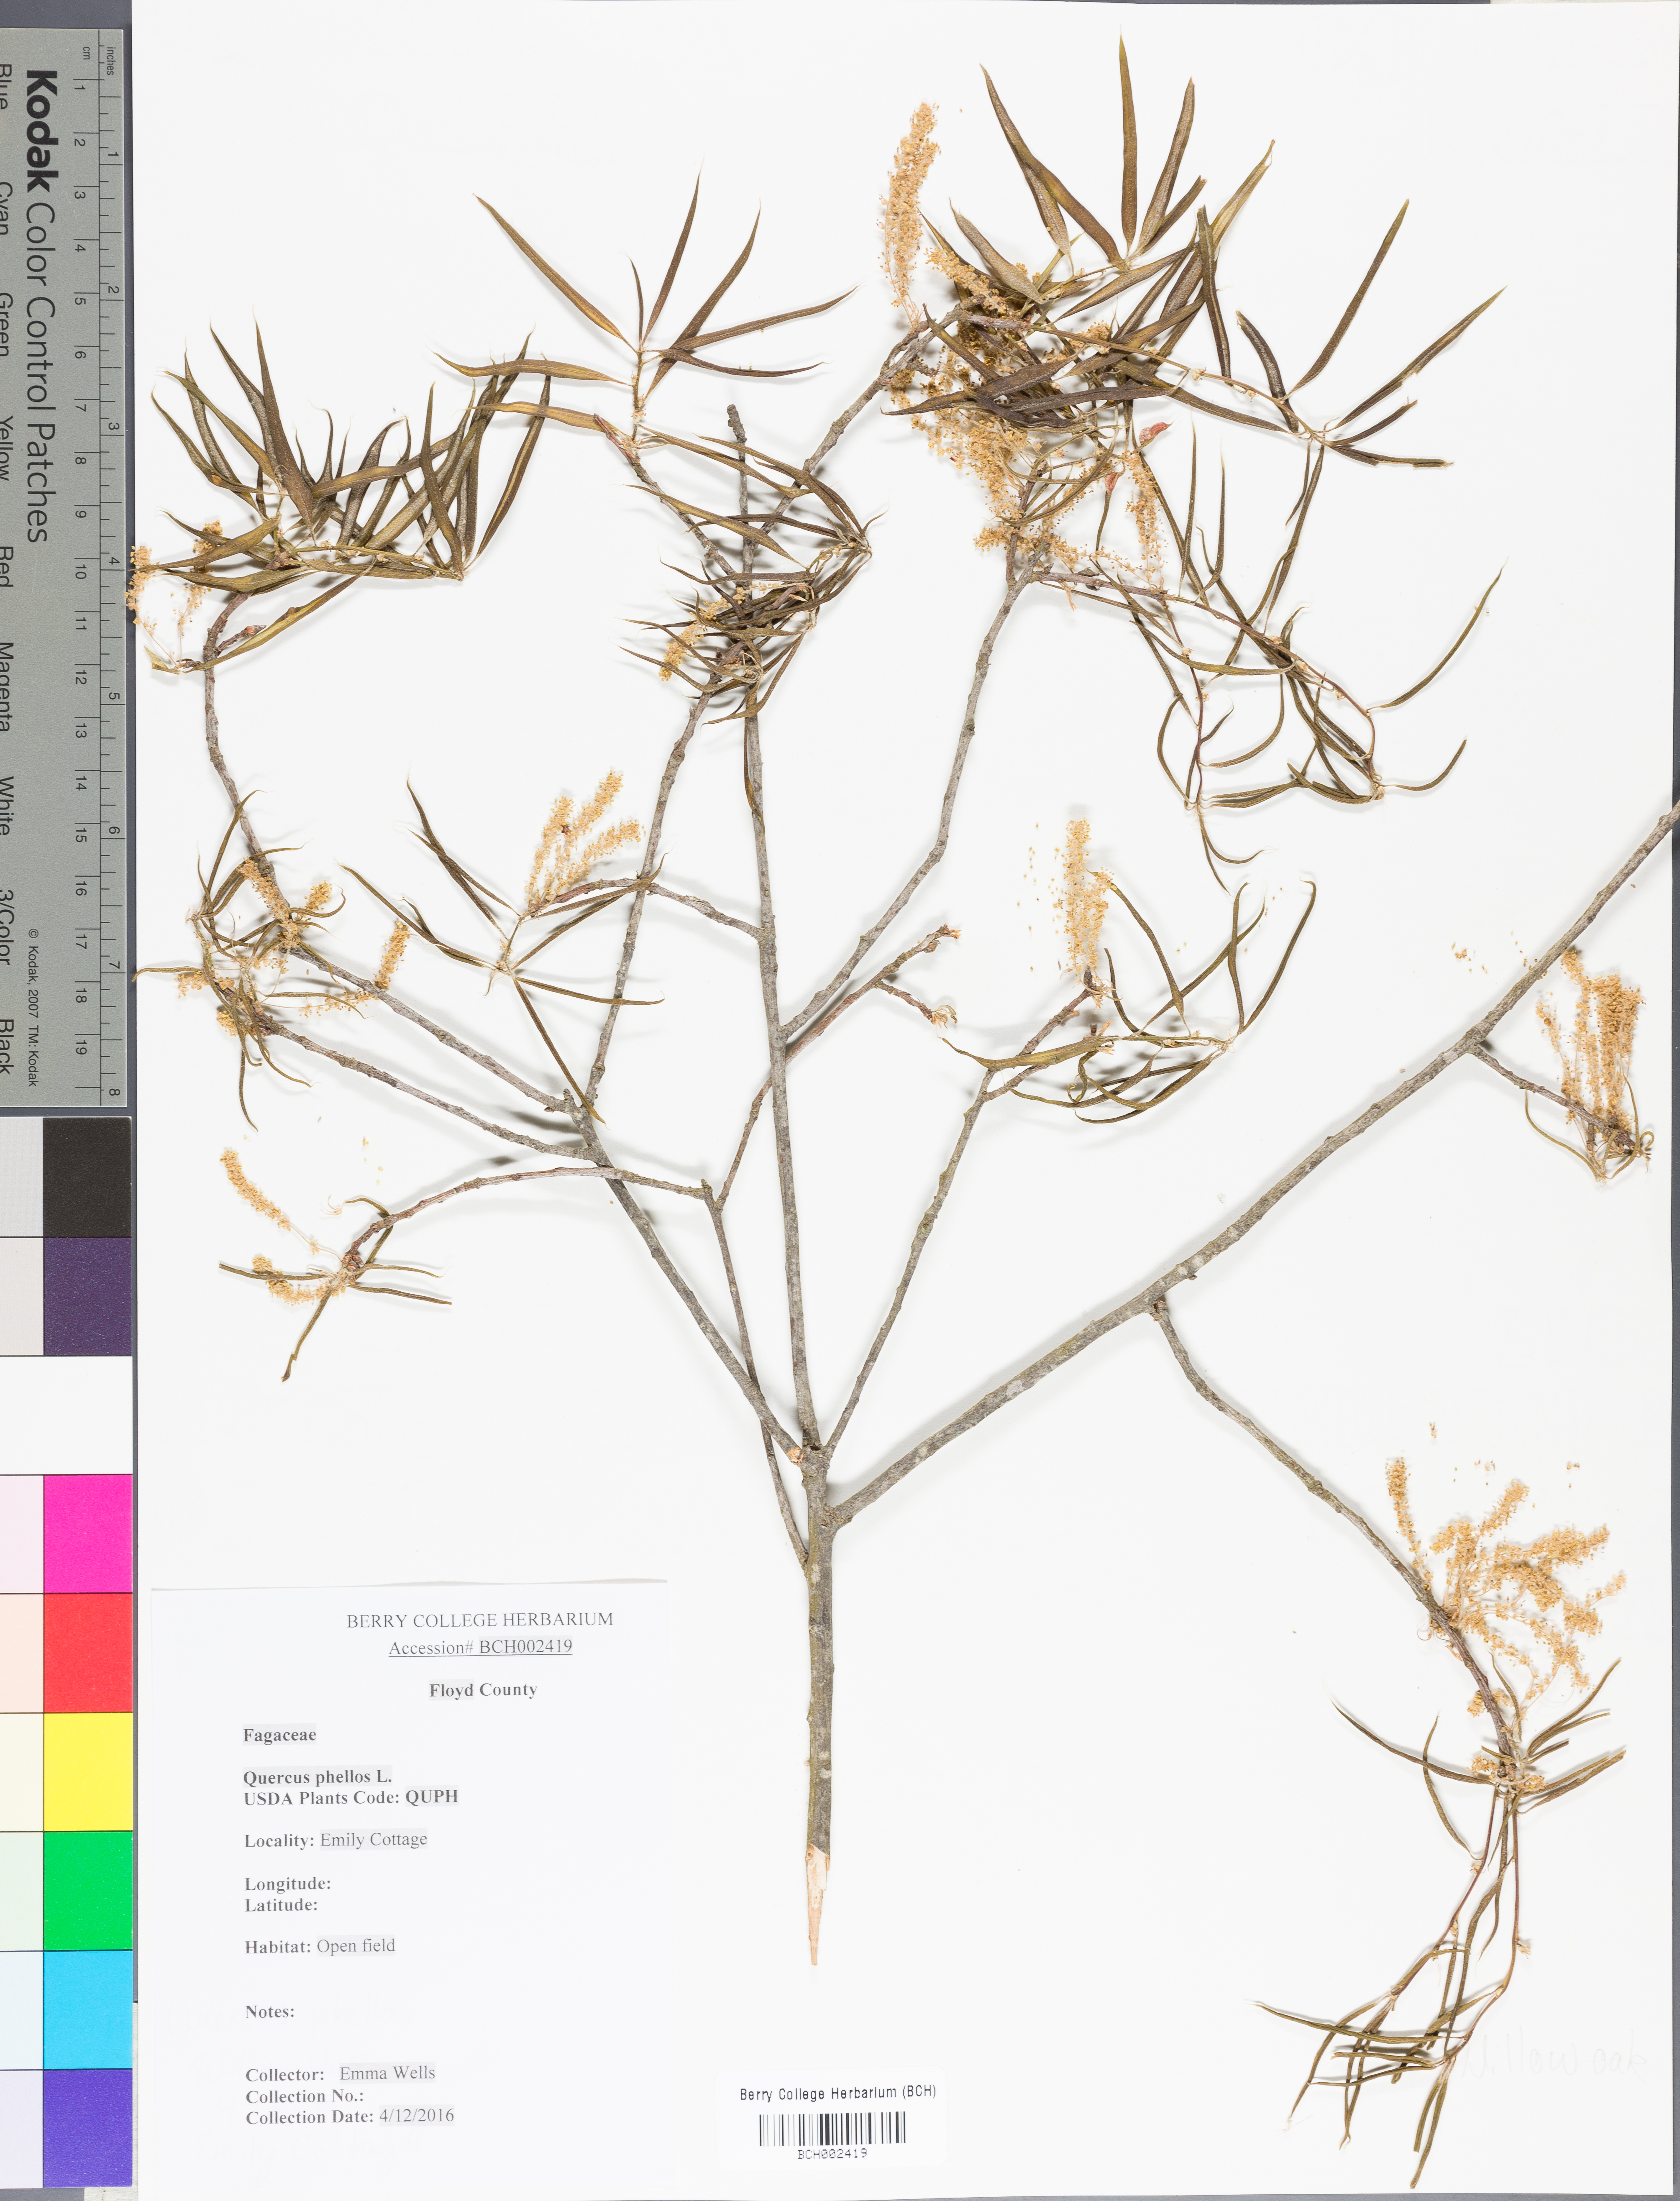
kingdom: Plantae
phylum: Tracheophyta
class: Magnoliopsida
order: Fagales
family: Fagaceae
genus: Quercus
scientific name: Quercus phellos
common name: Willow oak
